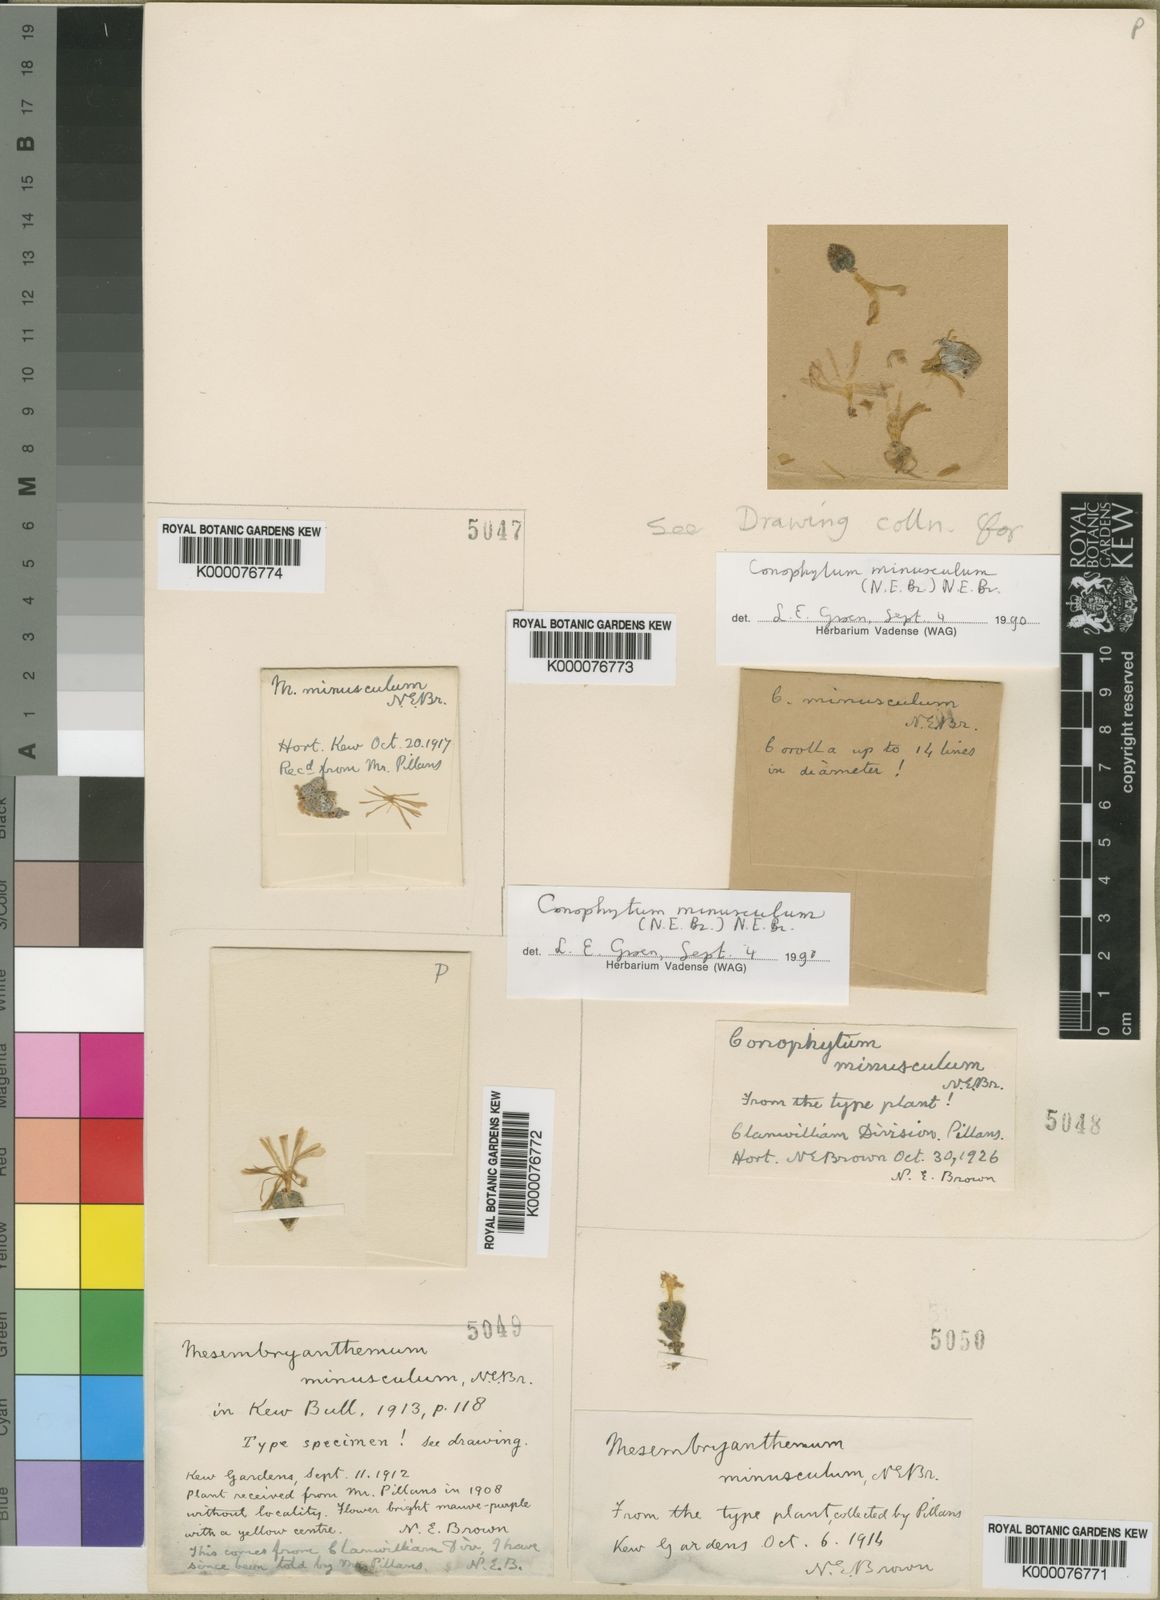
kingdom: Plantae
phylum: Tracheophyta
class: Magnoliopsida
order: Caryophyllales
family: Aizoaceae
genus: Conophytum
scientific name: Conophytum minusculum
